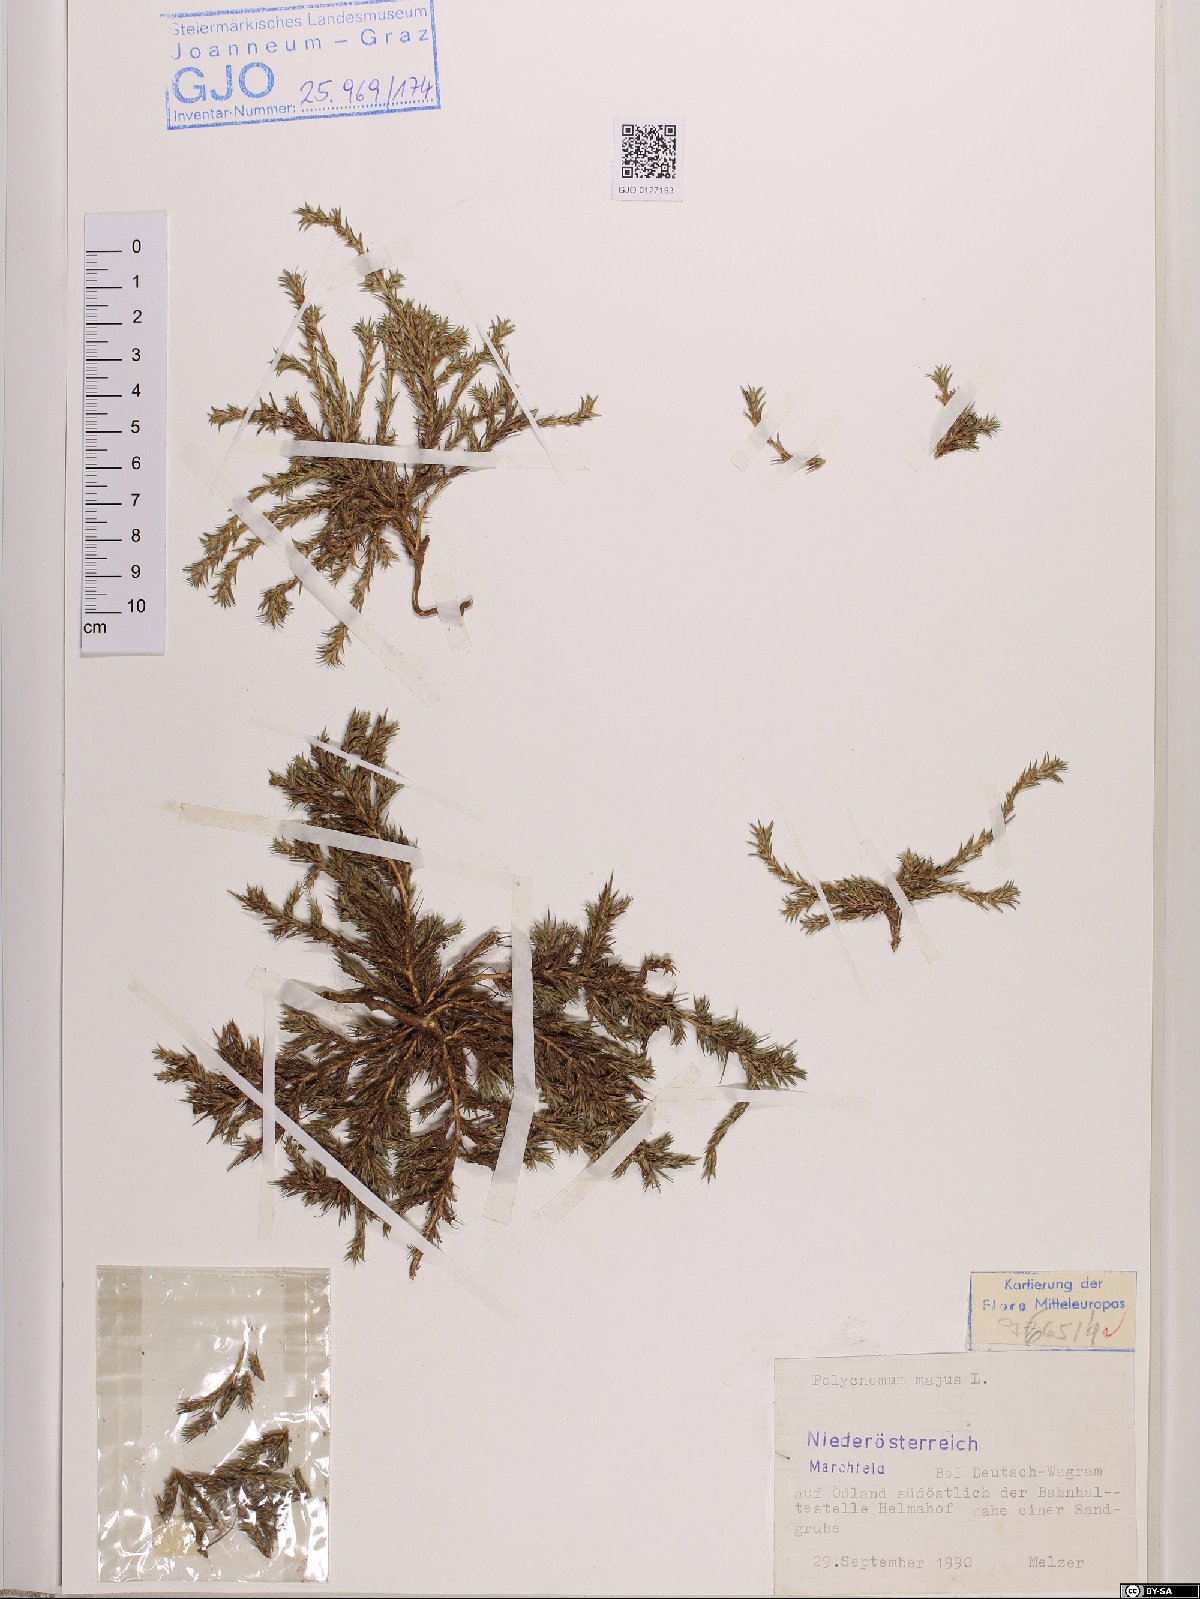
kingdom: Plantae
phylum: Tracheophyta
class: Magnoliopsida
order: Caryophyllales
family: Amaranthaceae
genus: Polycnemum
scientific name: Polycnemum majus
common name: Giant needleleaf
